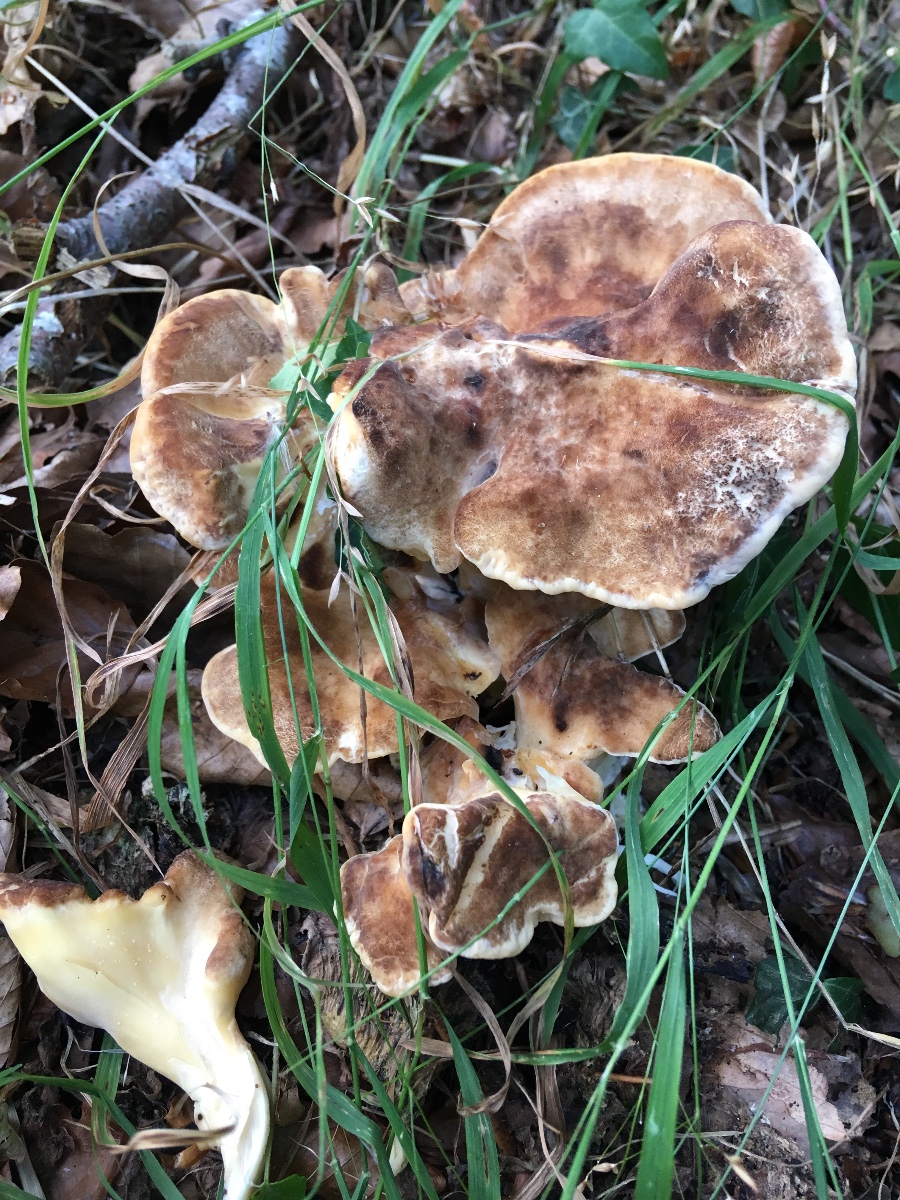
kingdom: Fungi
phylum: Basidiomycota
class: Agaricomycetes
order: Polyporales
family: Meripilaceae
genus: Meripilus
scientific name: Meripilus giganteus
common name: kæmpeporesvamp
